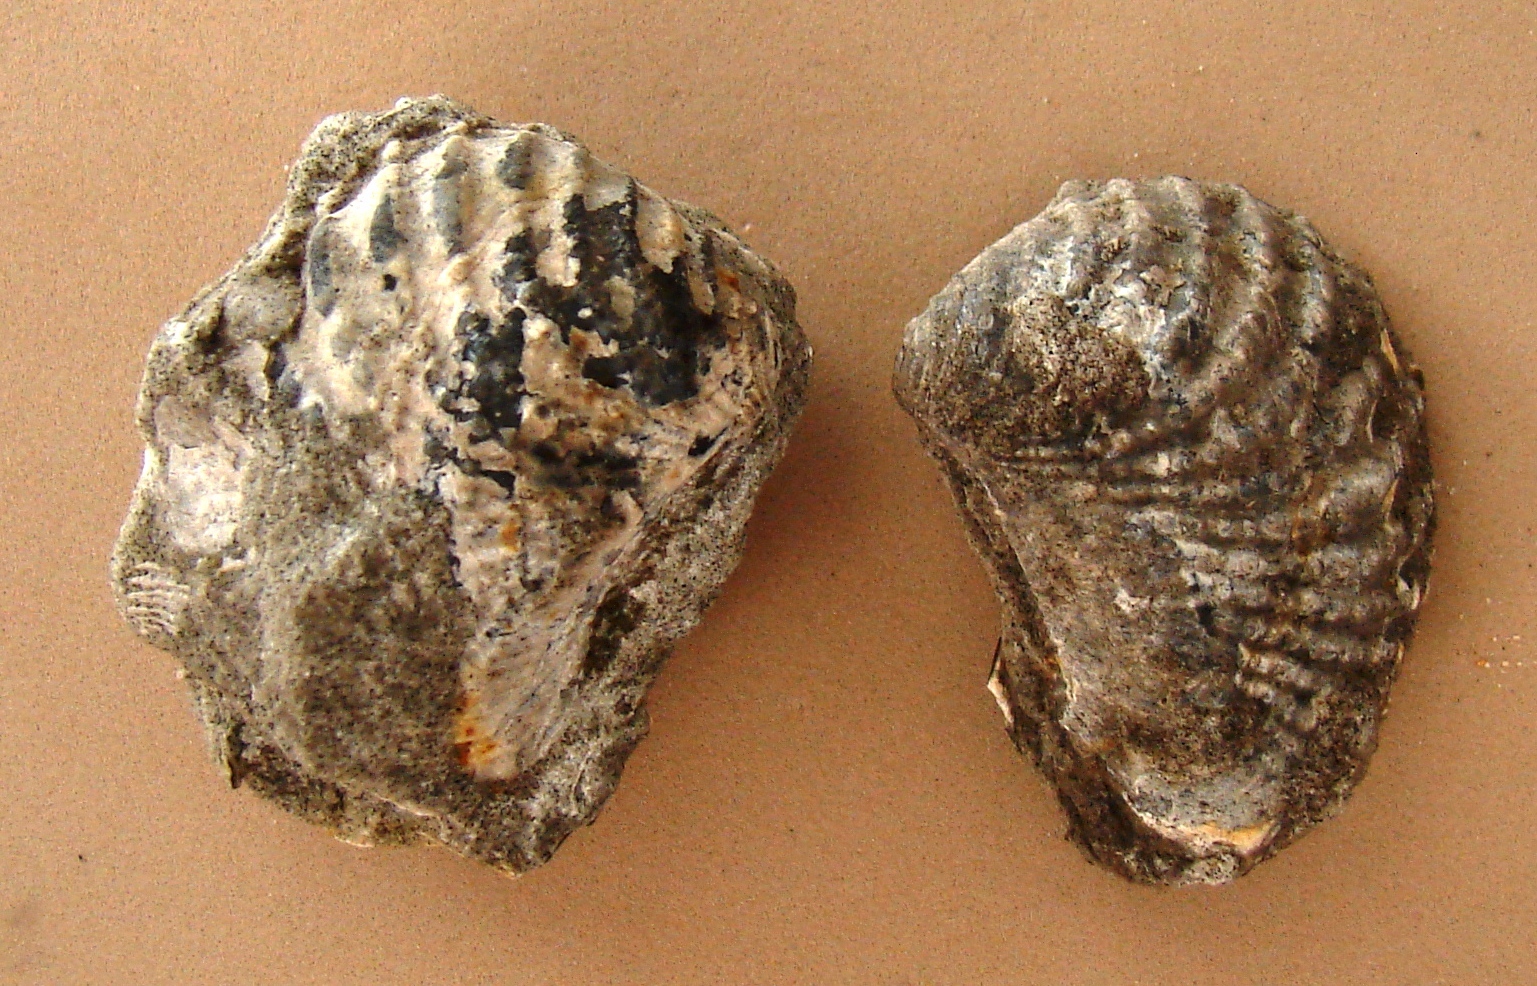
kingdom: Animalia
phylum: Mollusca
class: Bivalvia
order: Trigoniida
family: Pterotrigoniidae
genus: Mangyschlakella
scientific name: Mangyschlakella elisae
